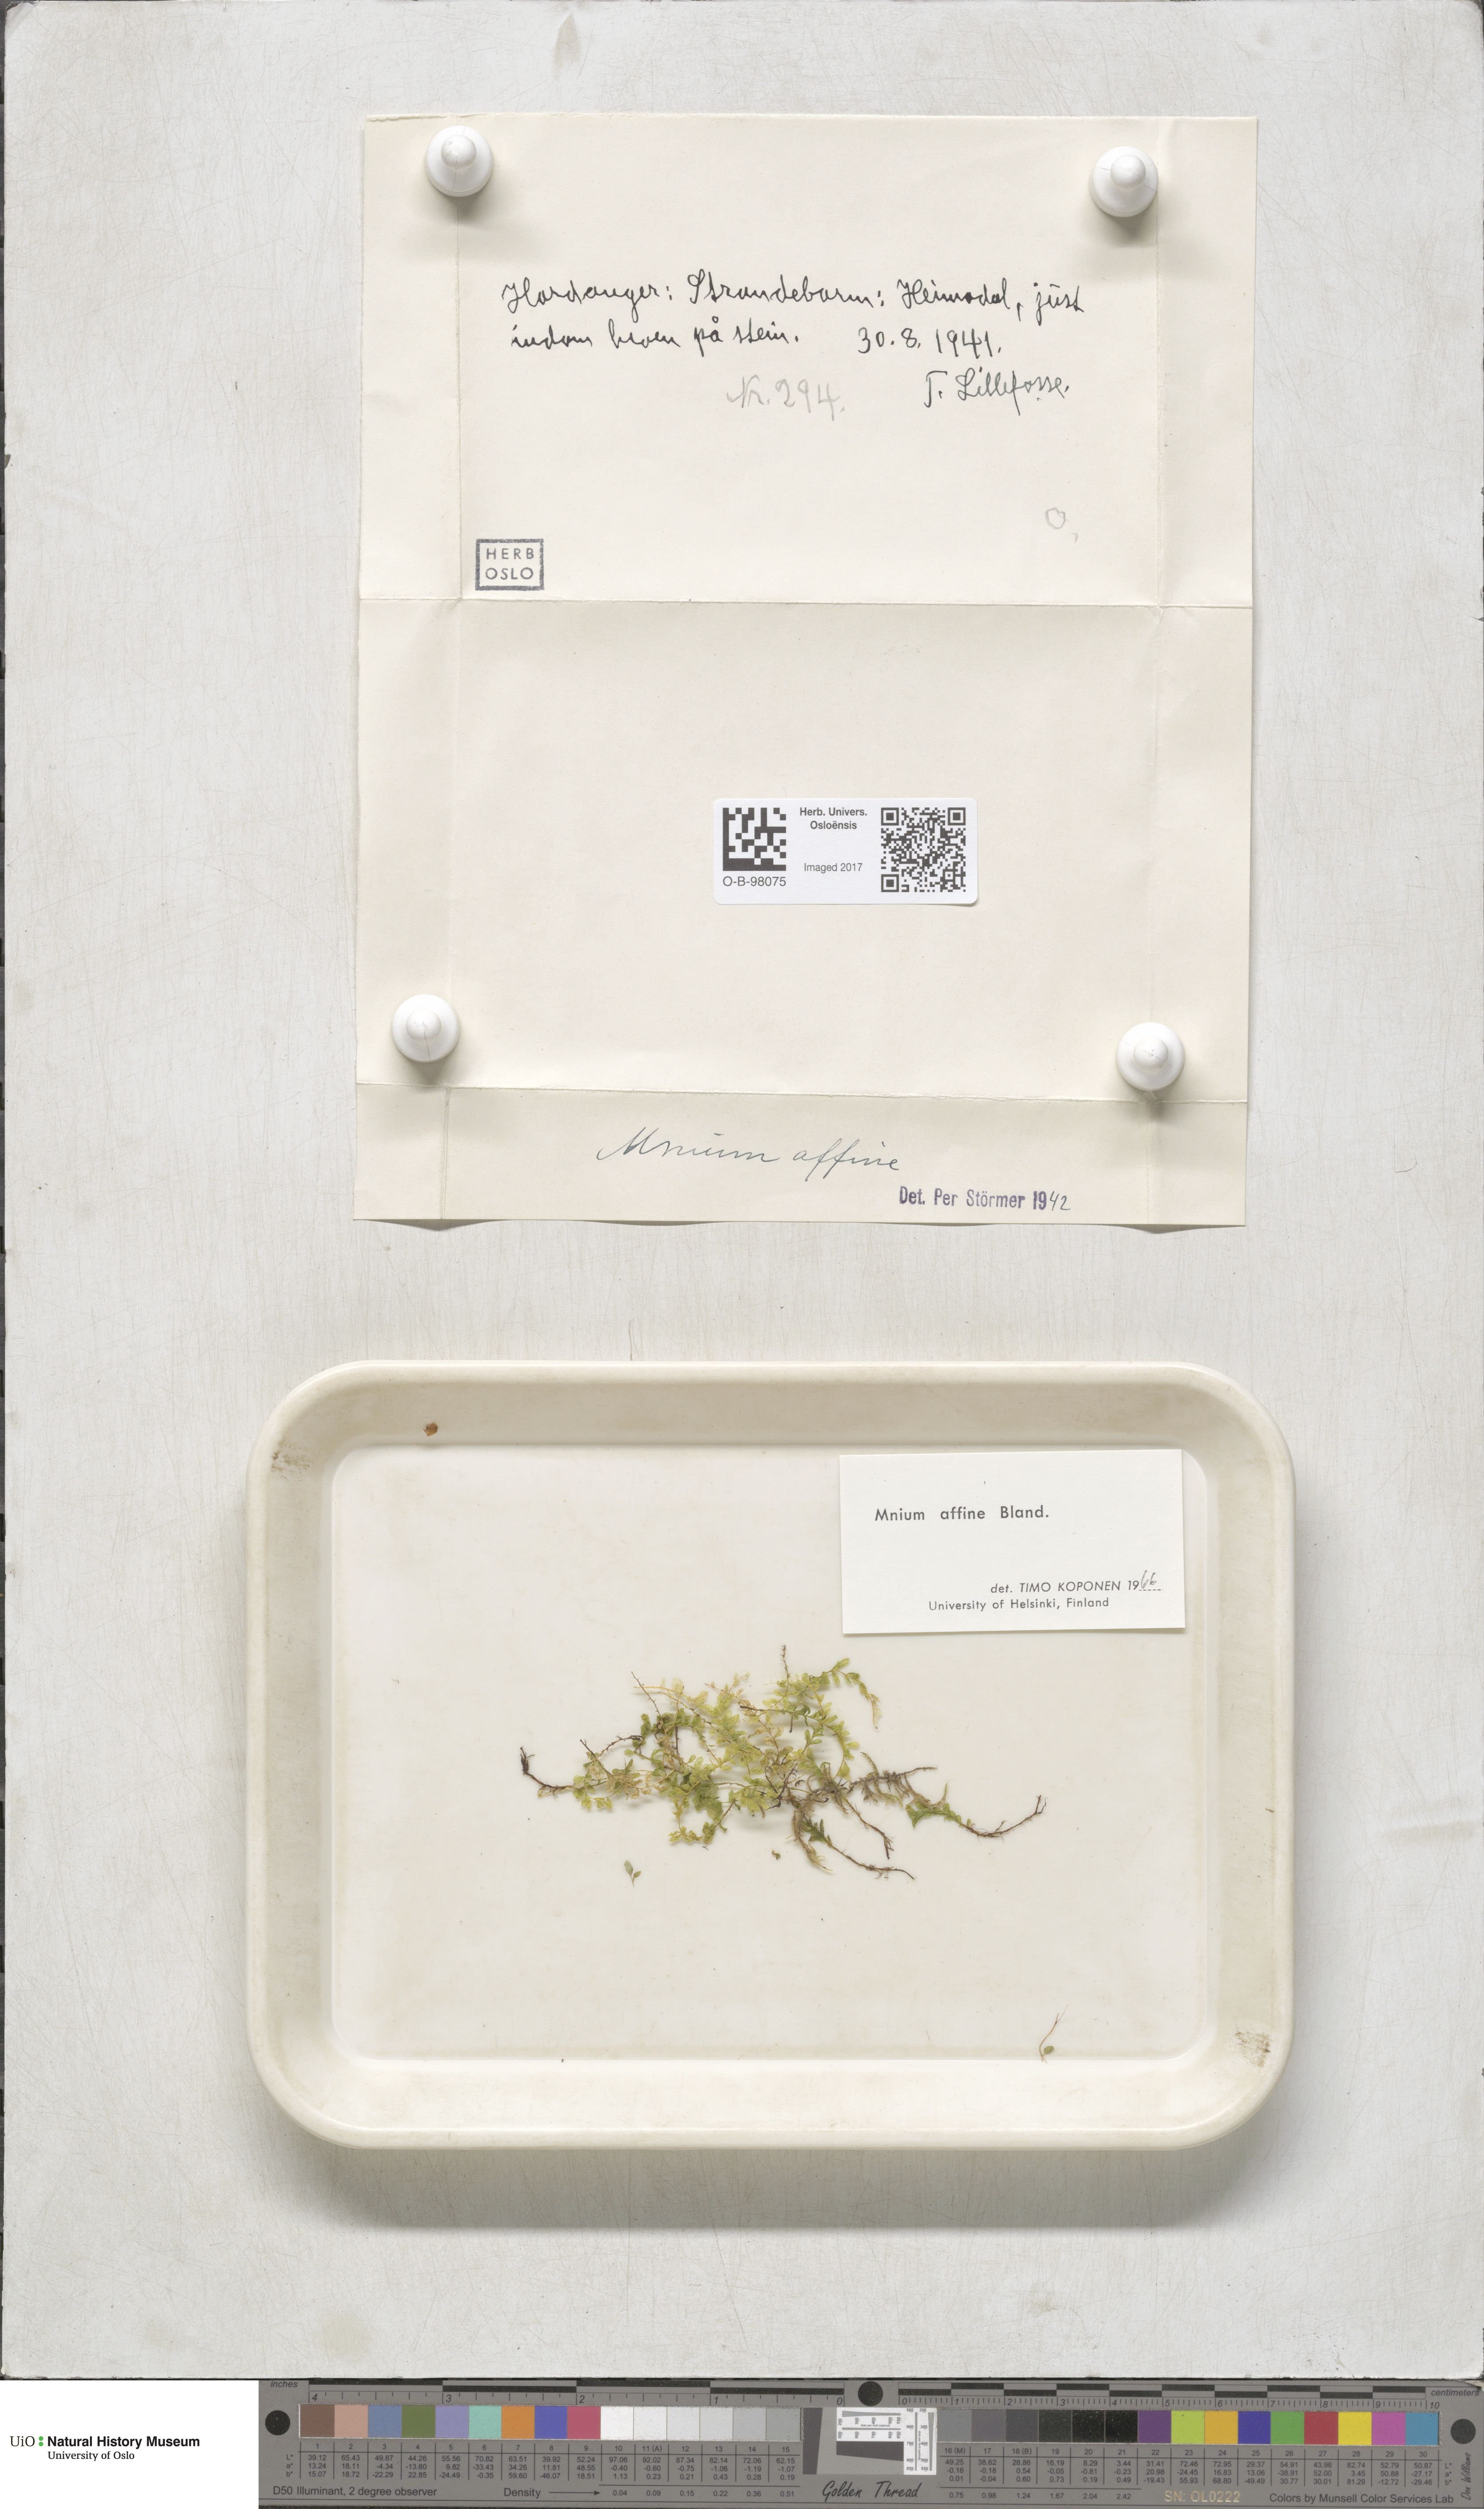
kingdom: Plantae
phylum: Bryophyta
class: Bryopsida
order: Bryales
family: Mniaceae
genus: Plagiomnium
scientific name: Plagiomnium affine
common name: Many-fruited thyme-moss
